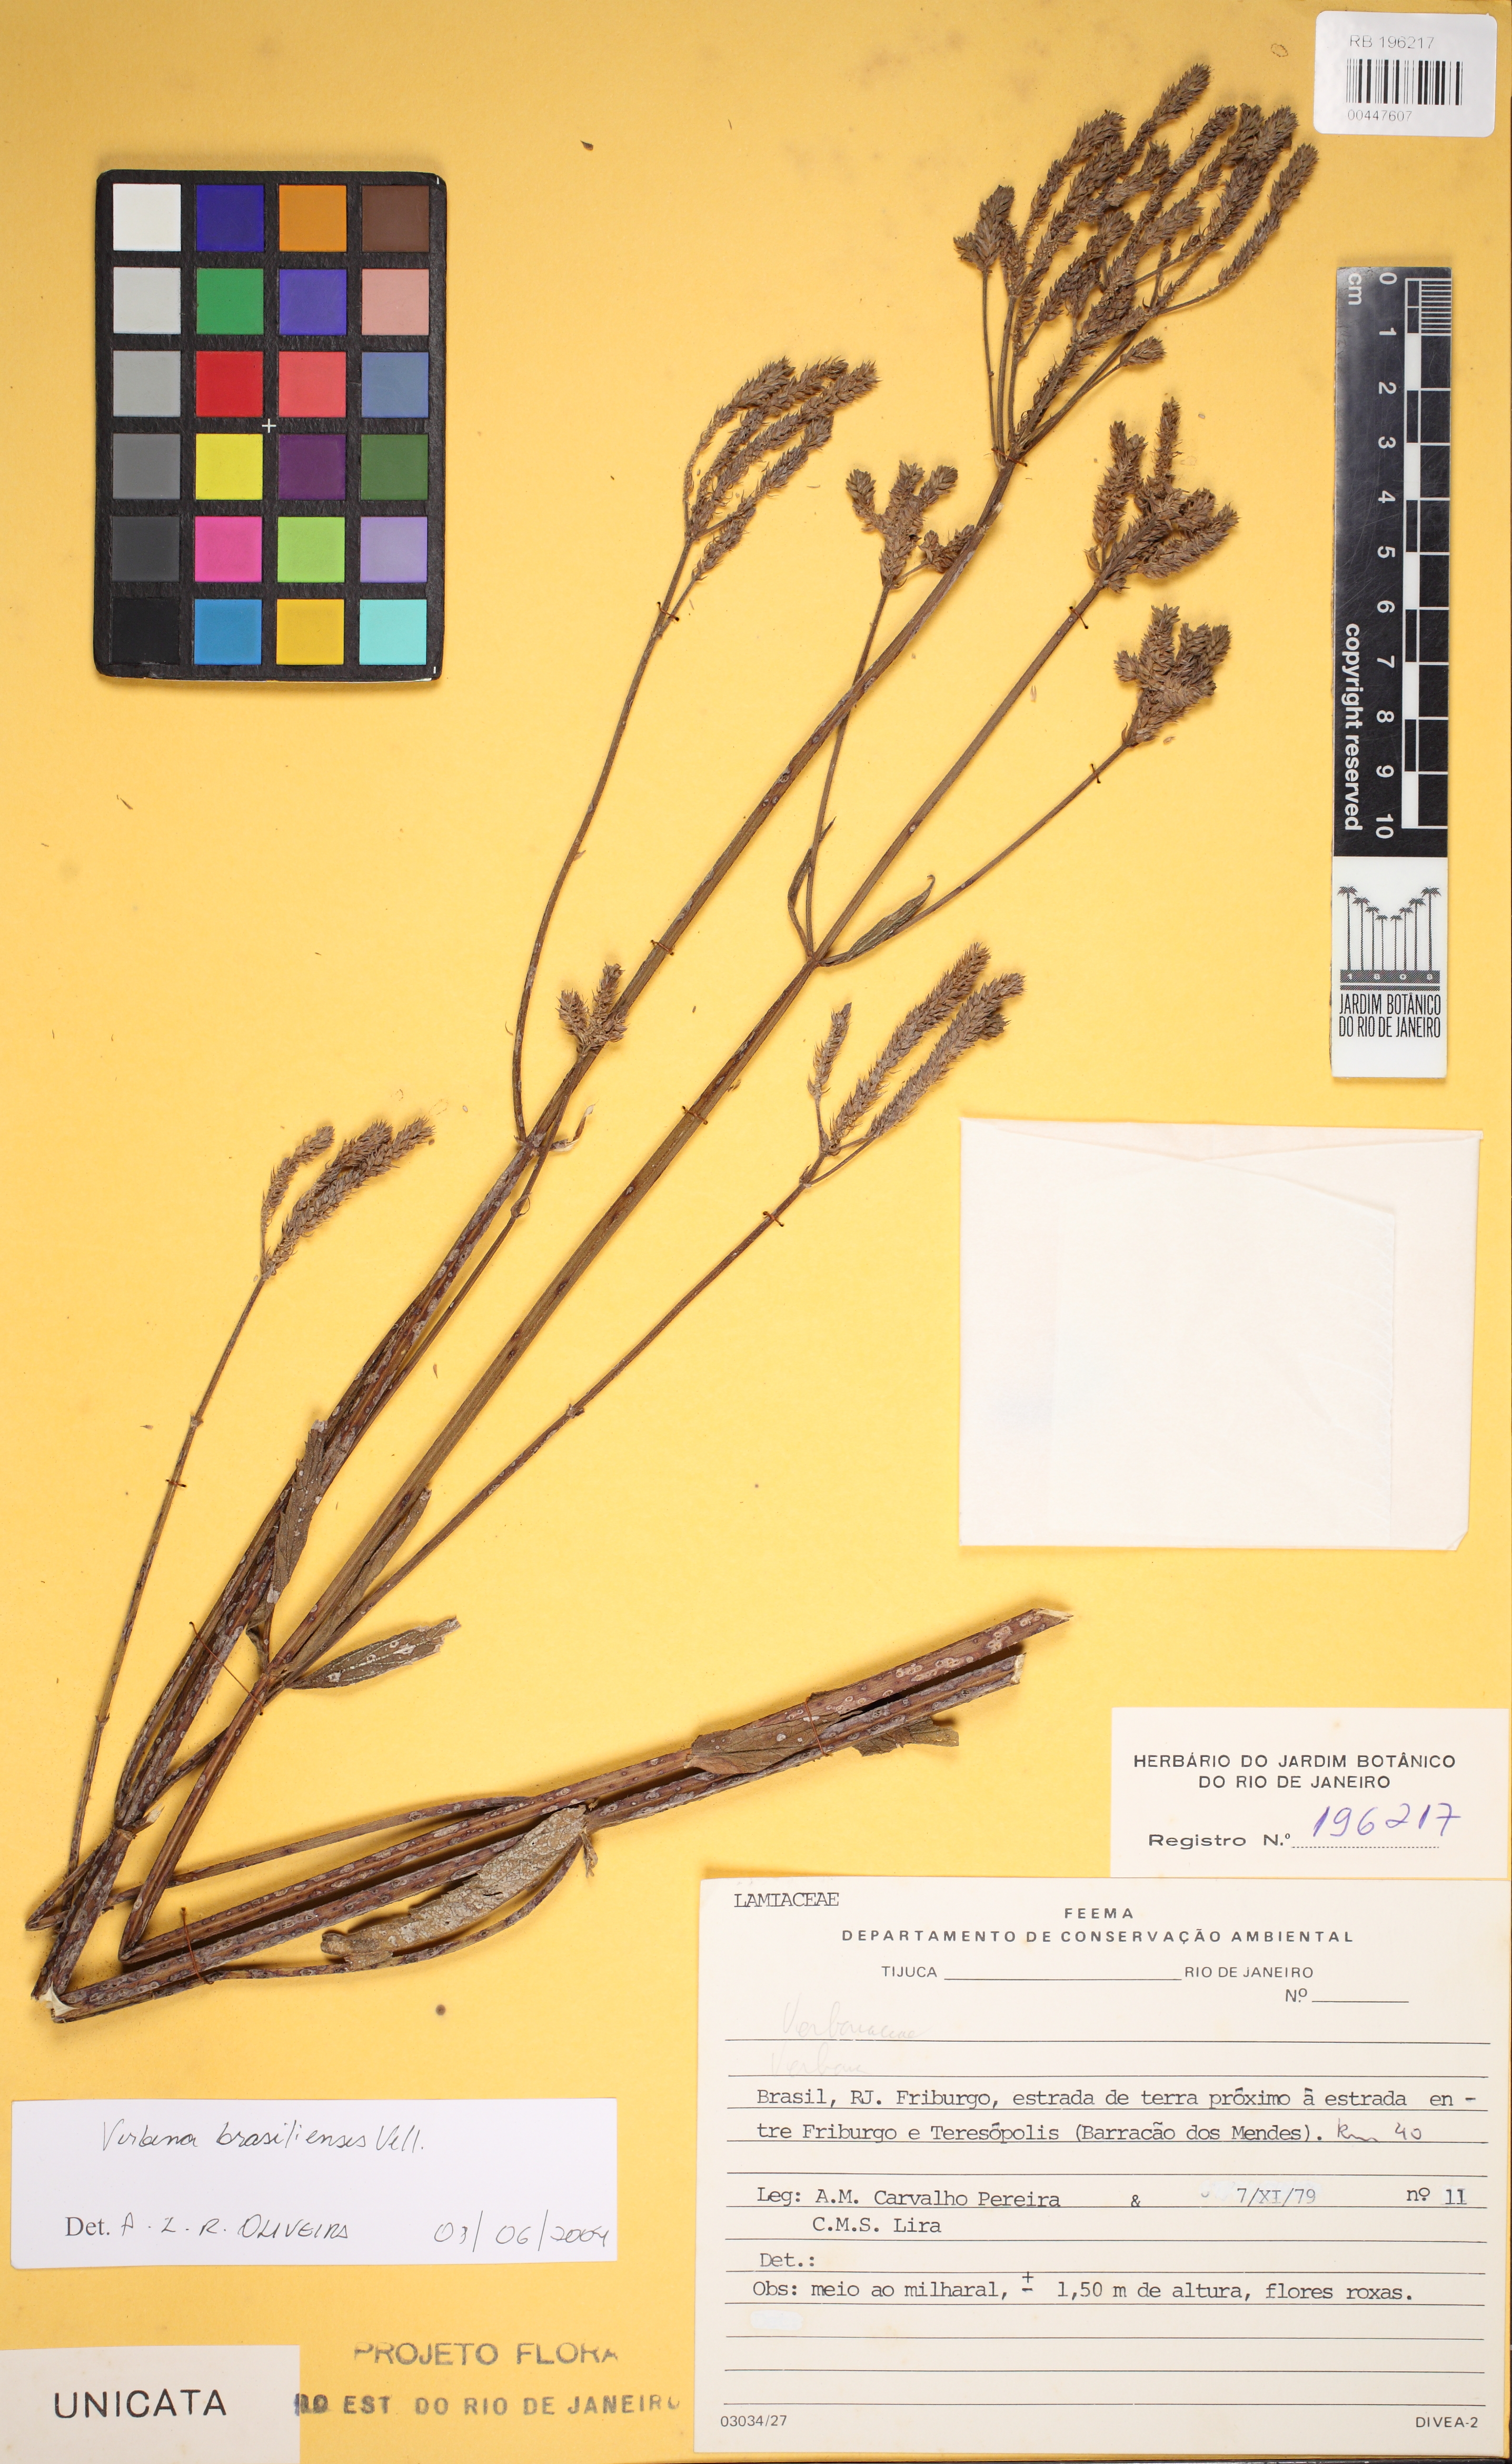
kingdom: Plantae
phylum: Tracheophyta
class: Magnoliopsida
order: Lamiales
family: Verbenaceae
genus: Verbena
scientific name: Verbena brasiliensis
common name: Brazilian vervain
